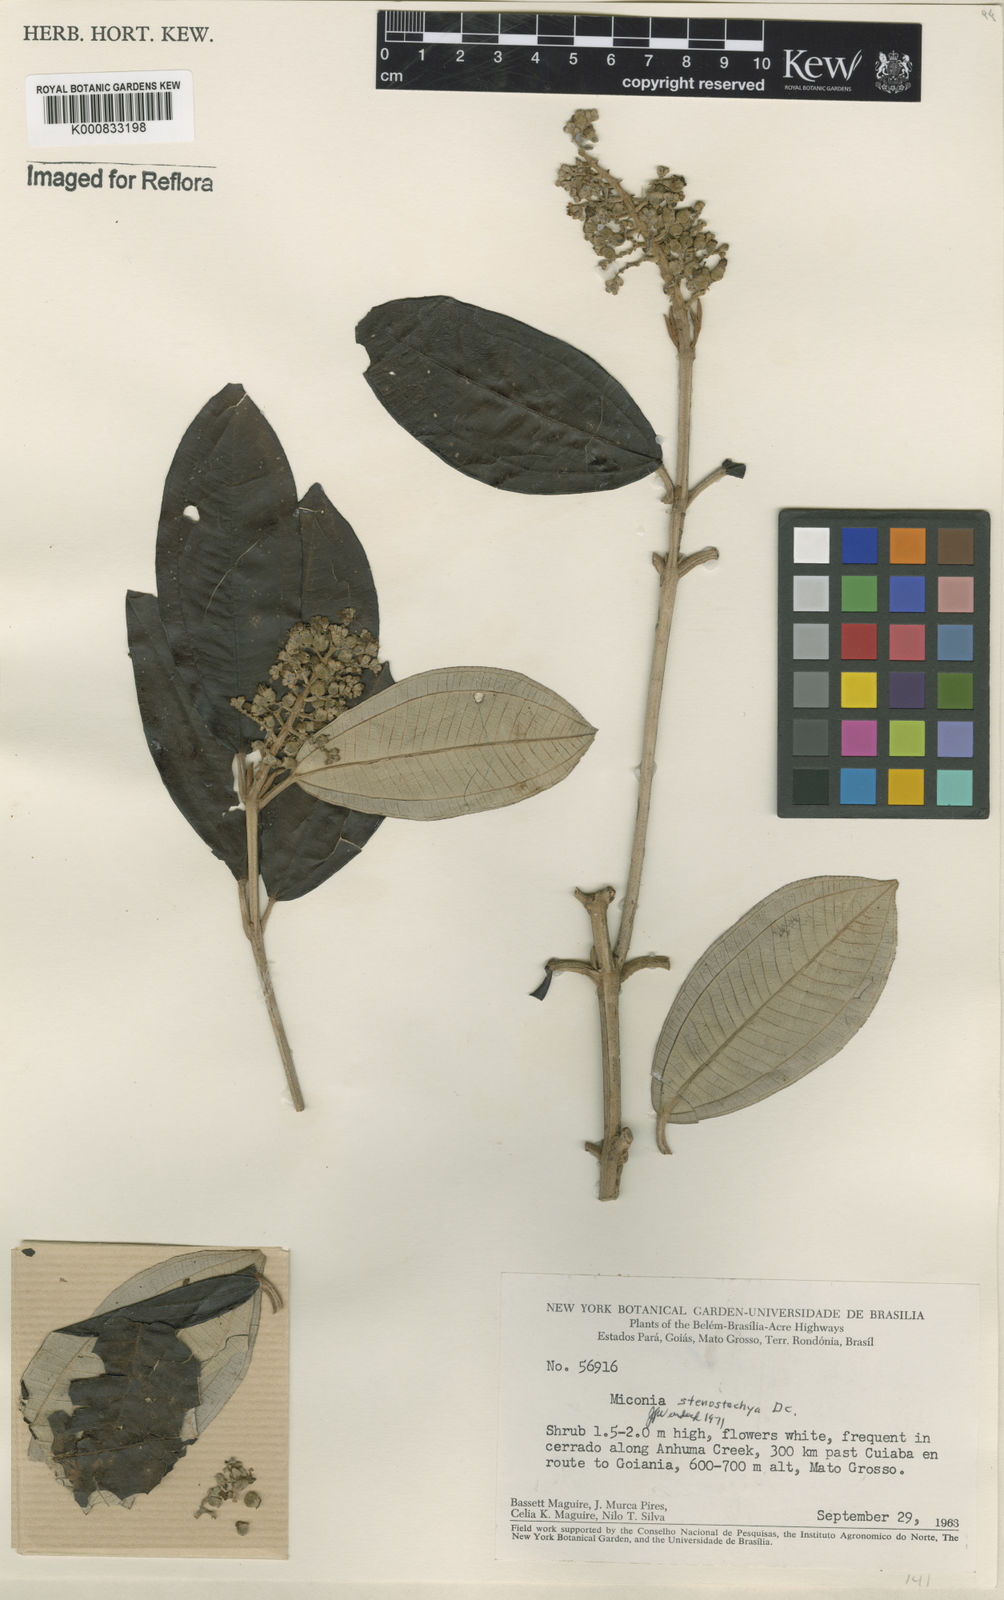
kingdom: Plantae
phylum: Tracheophyta
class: Magnoliopsida
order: Myrtales
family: Melastomataceae
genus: Miconia
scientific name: Miconia stenostachya
